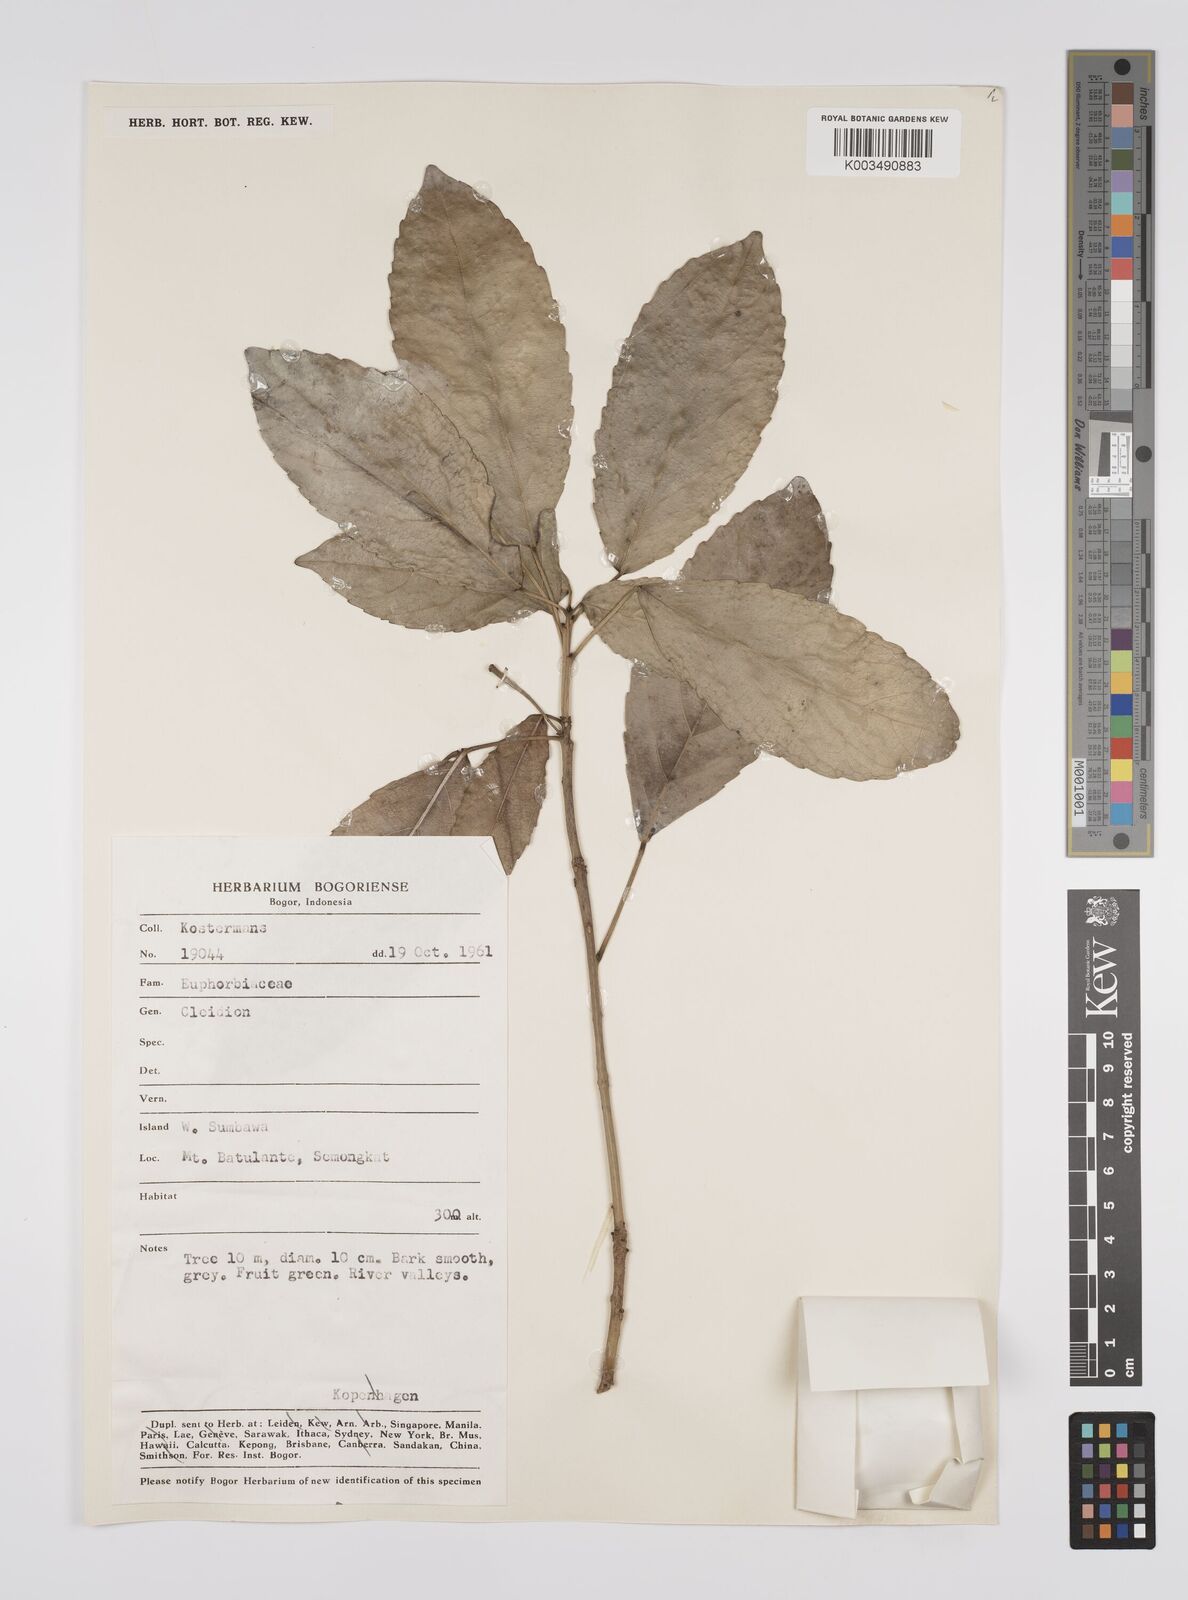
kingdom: Plantae
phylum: Tracheophyta
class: Magnoliopsida
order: Malpighiales
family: Euphorbiaceae
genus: Acalypha
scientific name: Acalypha spiciflora
